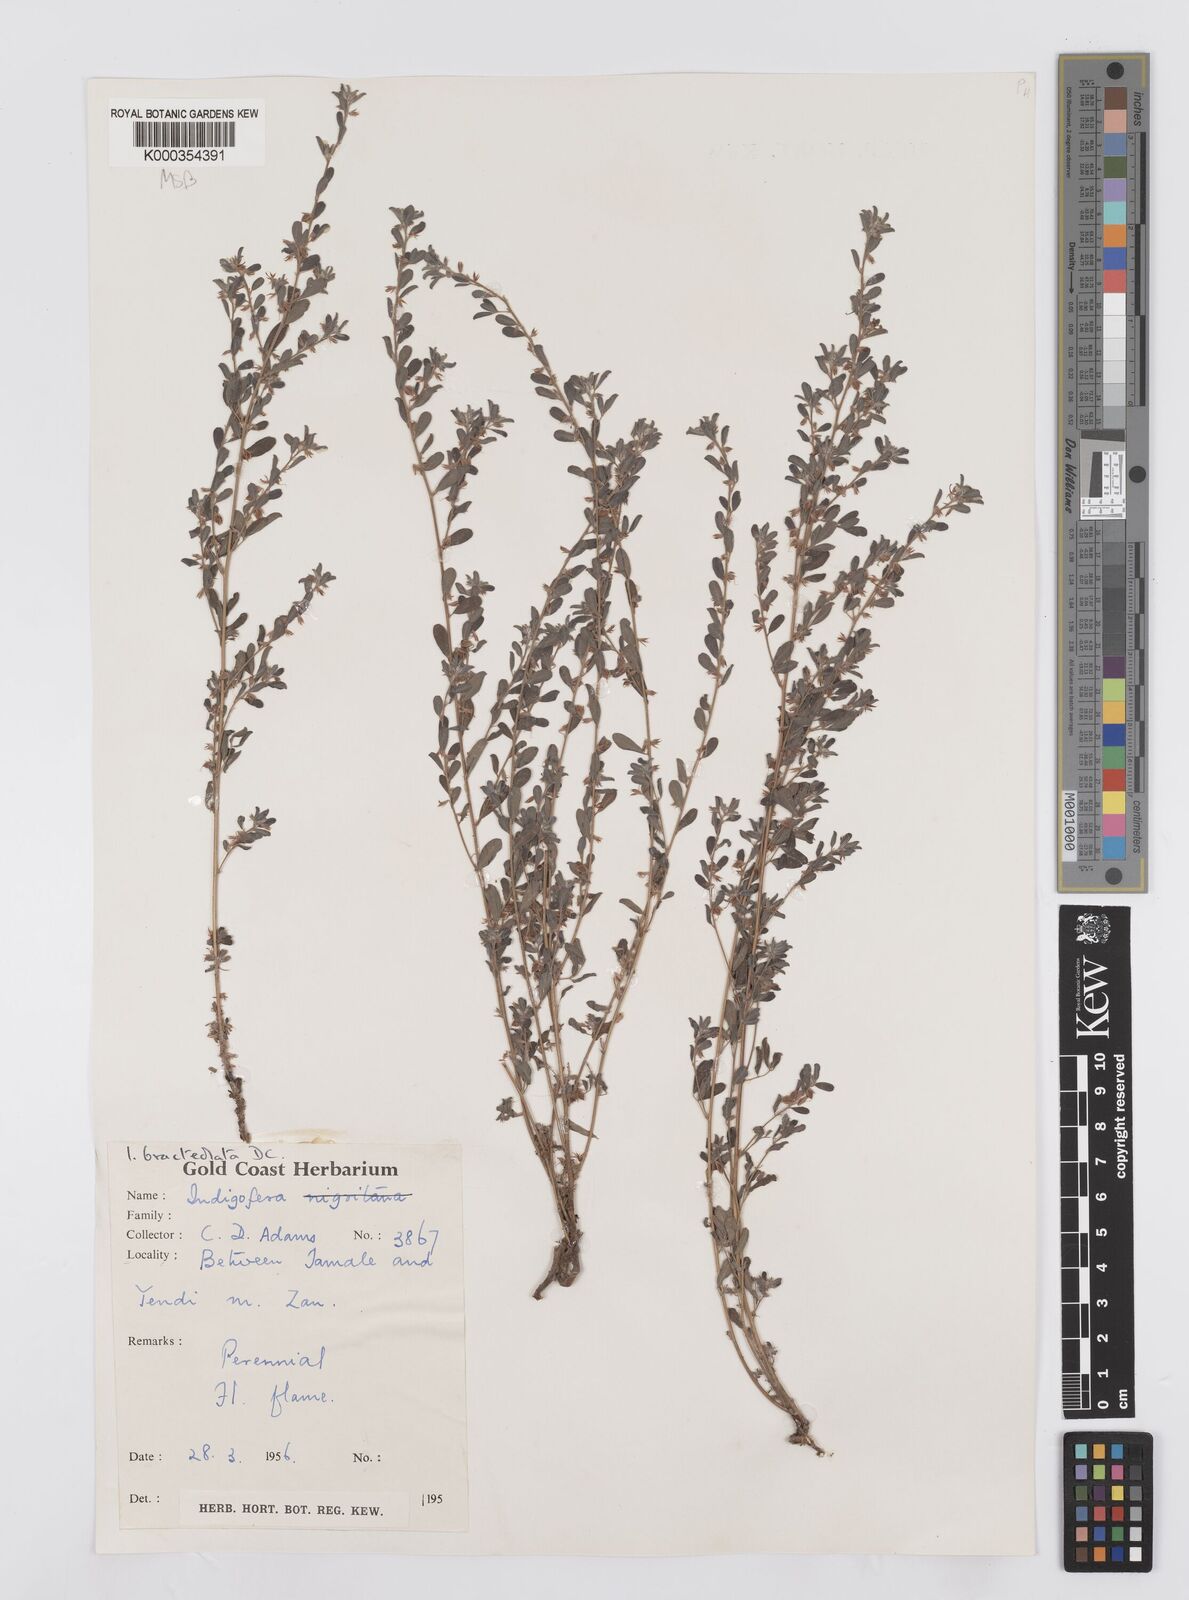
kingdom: Plantae
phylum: Tracheophyta
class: Magnoliopsida
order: Fabales
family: Fabaceae
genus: Indigofera
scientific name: Indigofera bracteolata
